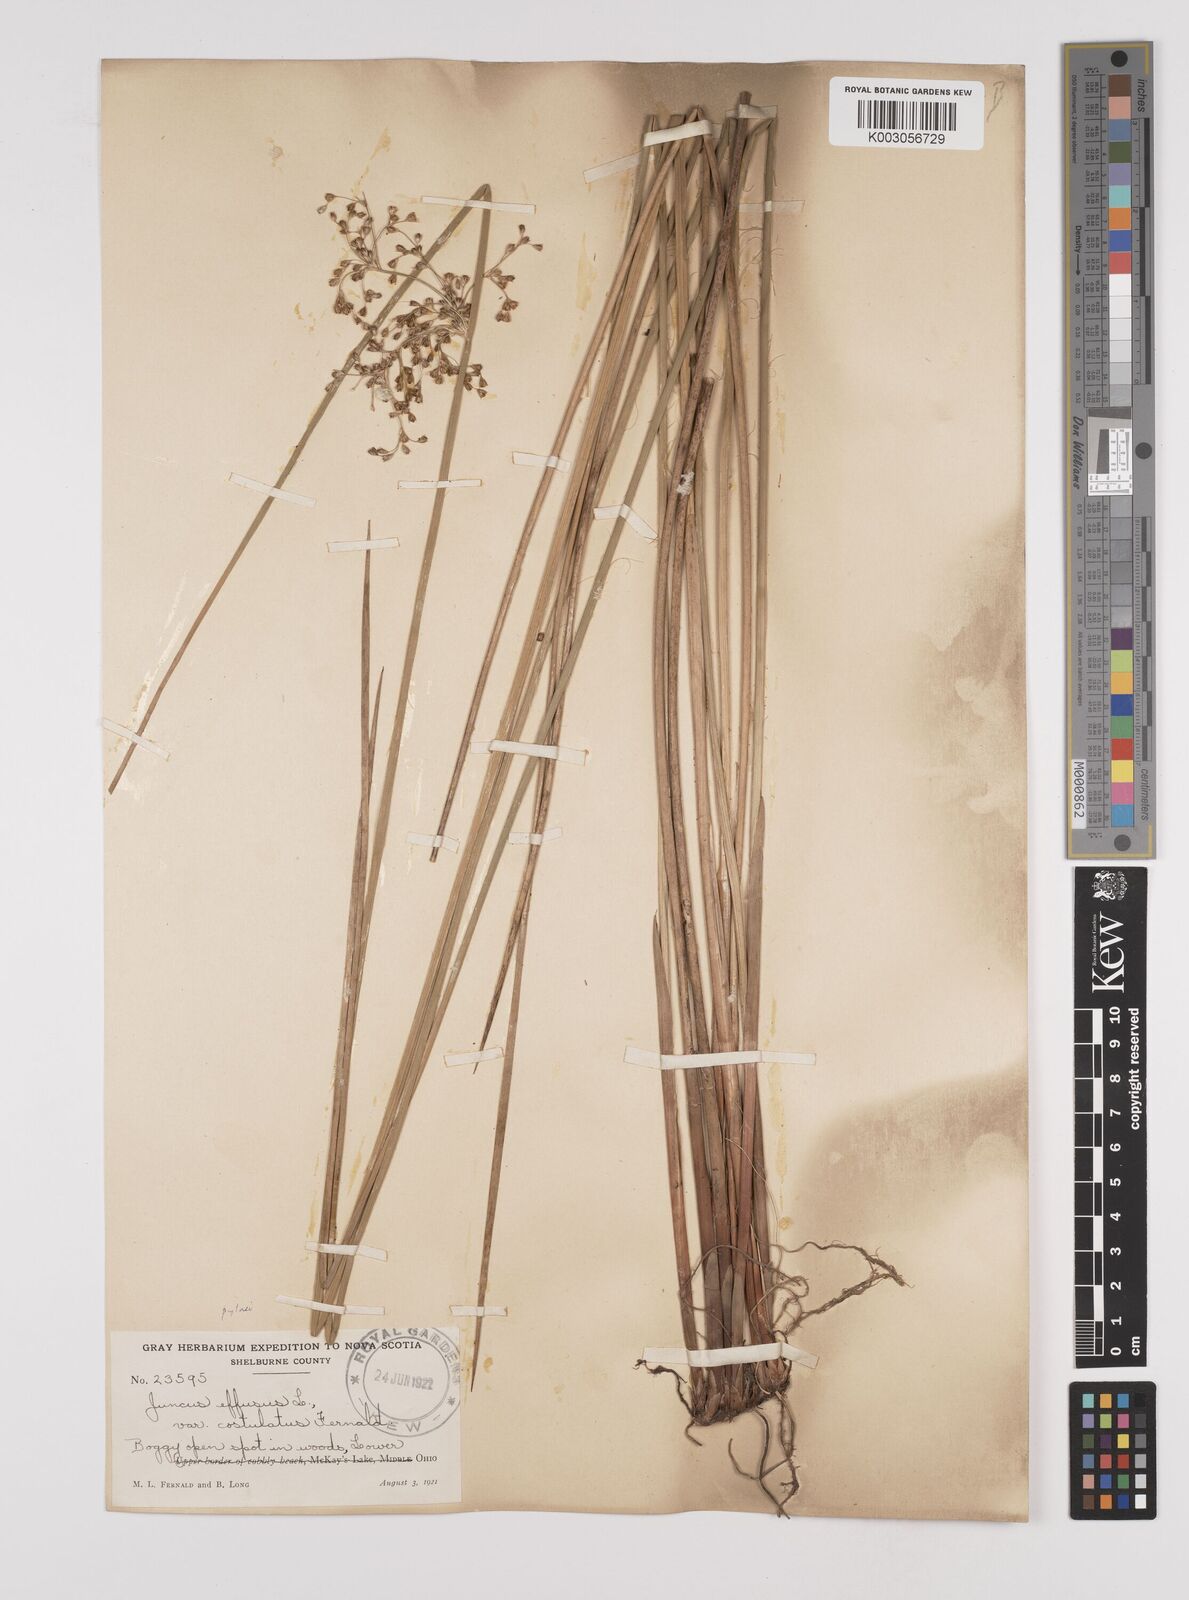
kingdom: Plantae
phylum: Tracheophyta
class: Liliopsida
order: Poales
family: Juncaceae
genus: Juncus
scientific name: Juncus effusus
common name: Soft rush
